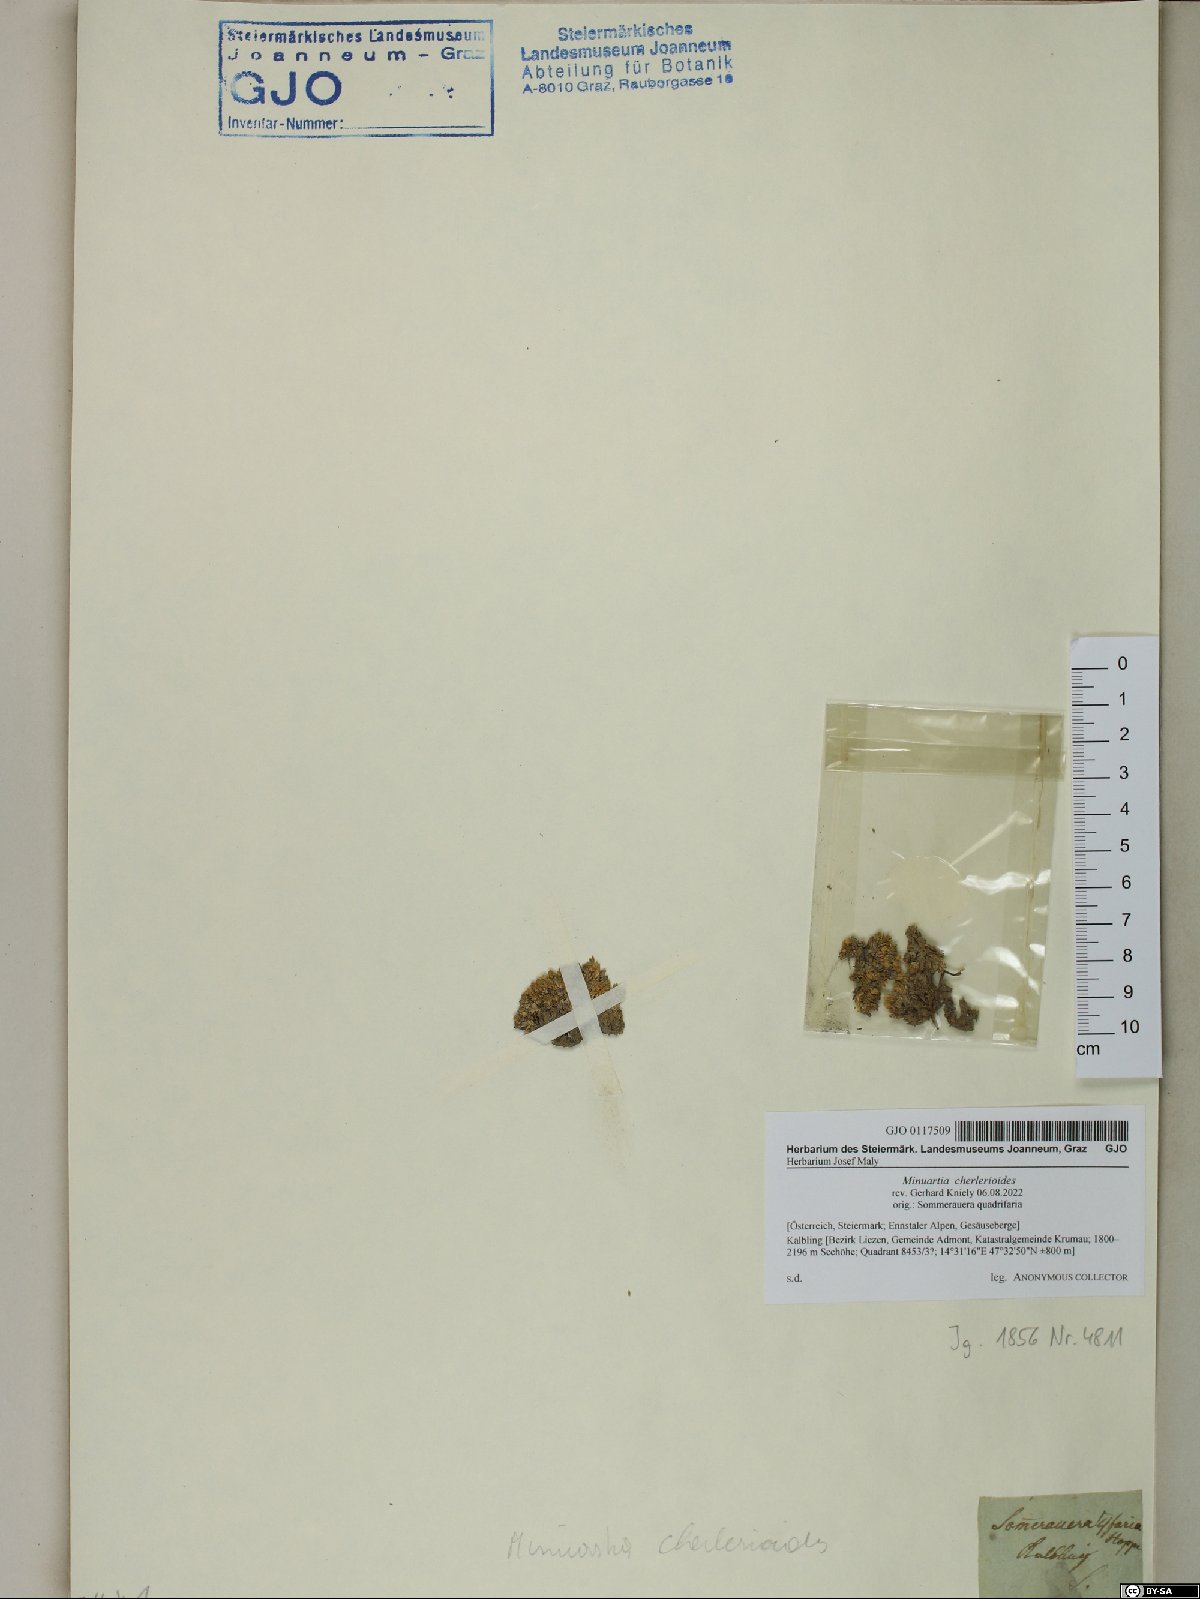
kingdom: Plantae
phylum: Tracheophyta
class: Magnoliopsida
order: Caryophyllales
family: Caryophyllaceae
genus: Facchinia
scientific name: Facchinia cherlerioides
